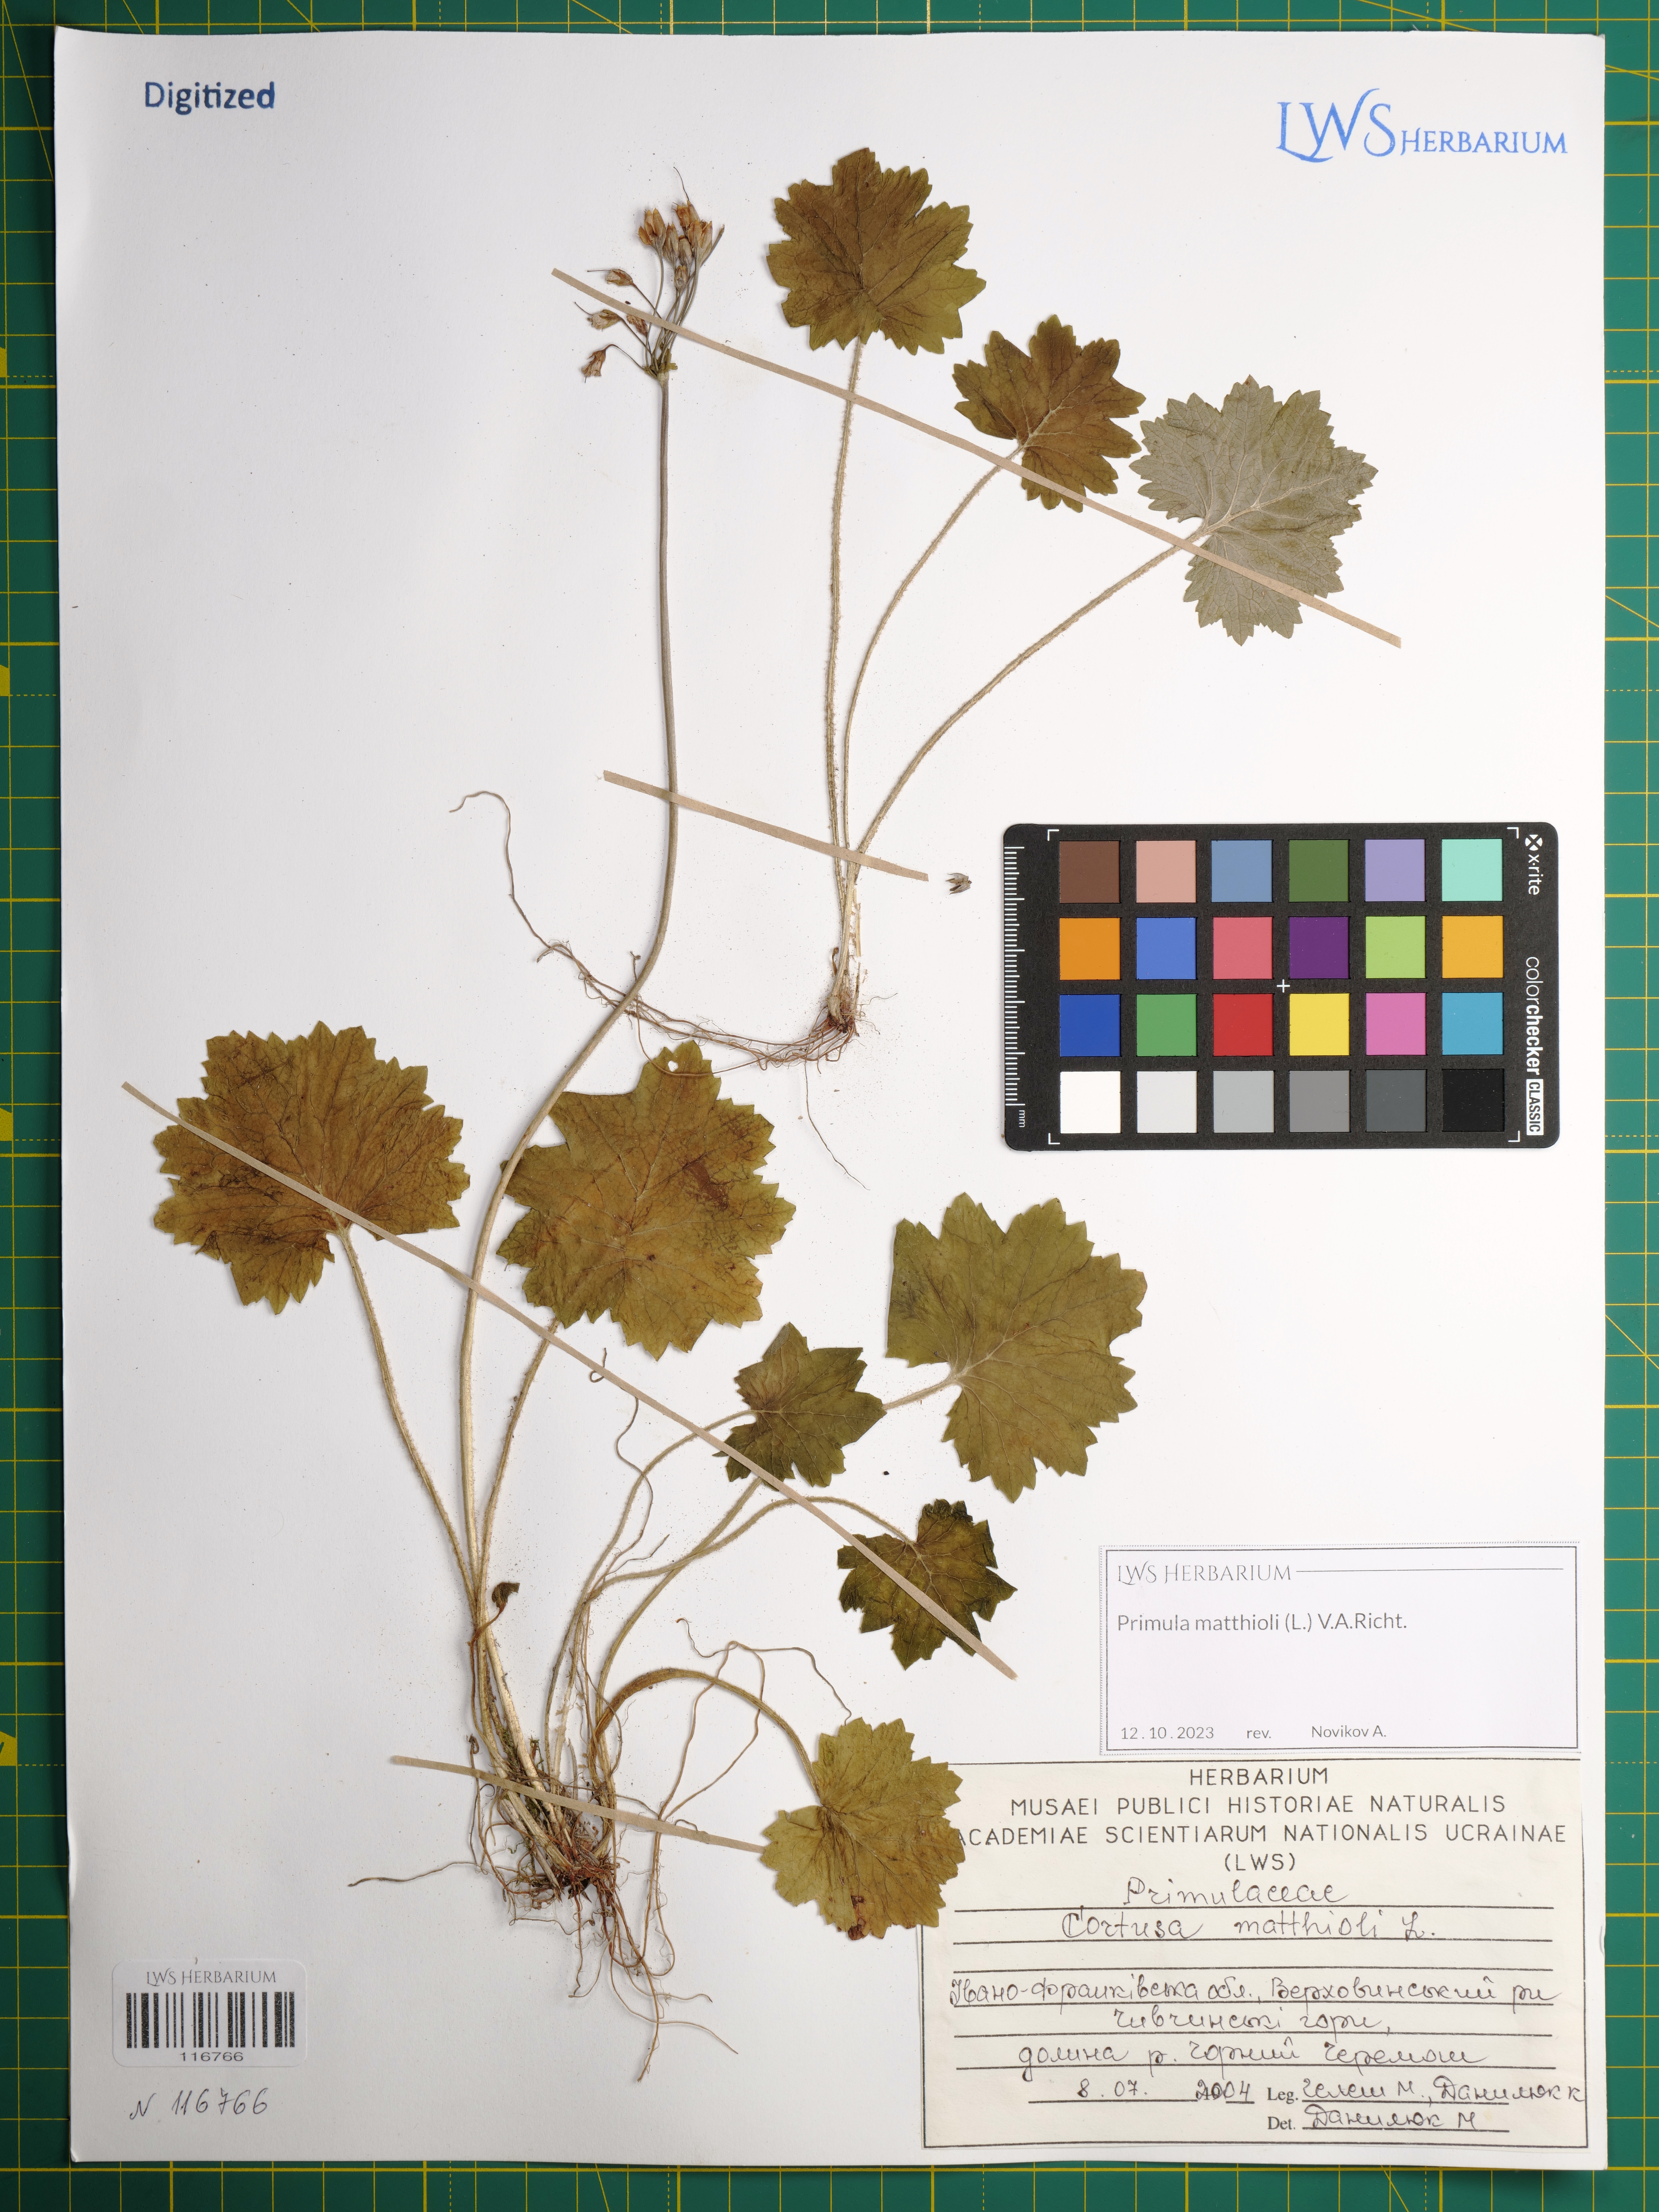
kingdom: Plantae
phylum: Tracheophyta
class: Magnoliopsida
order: Ericales
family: Primulaceae
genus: Primula
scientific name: Primula matthioli
